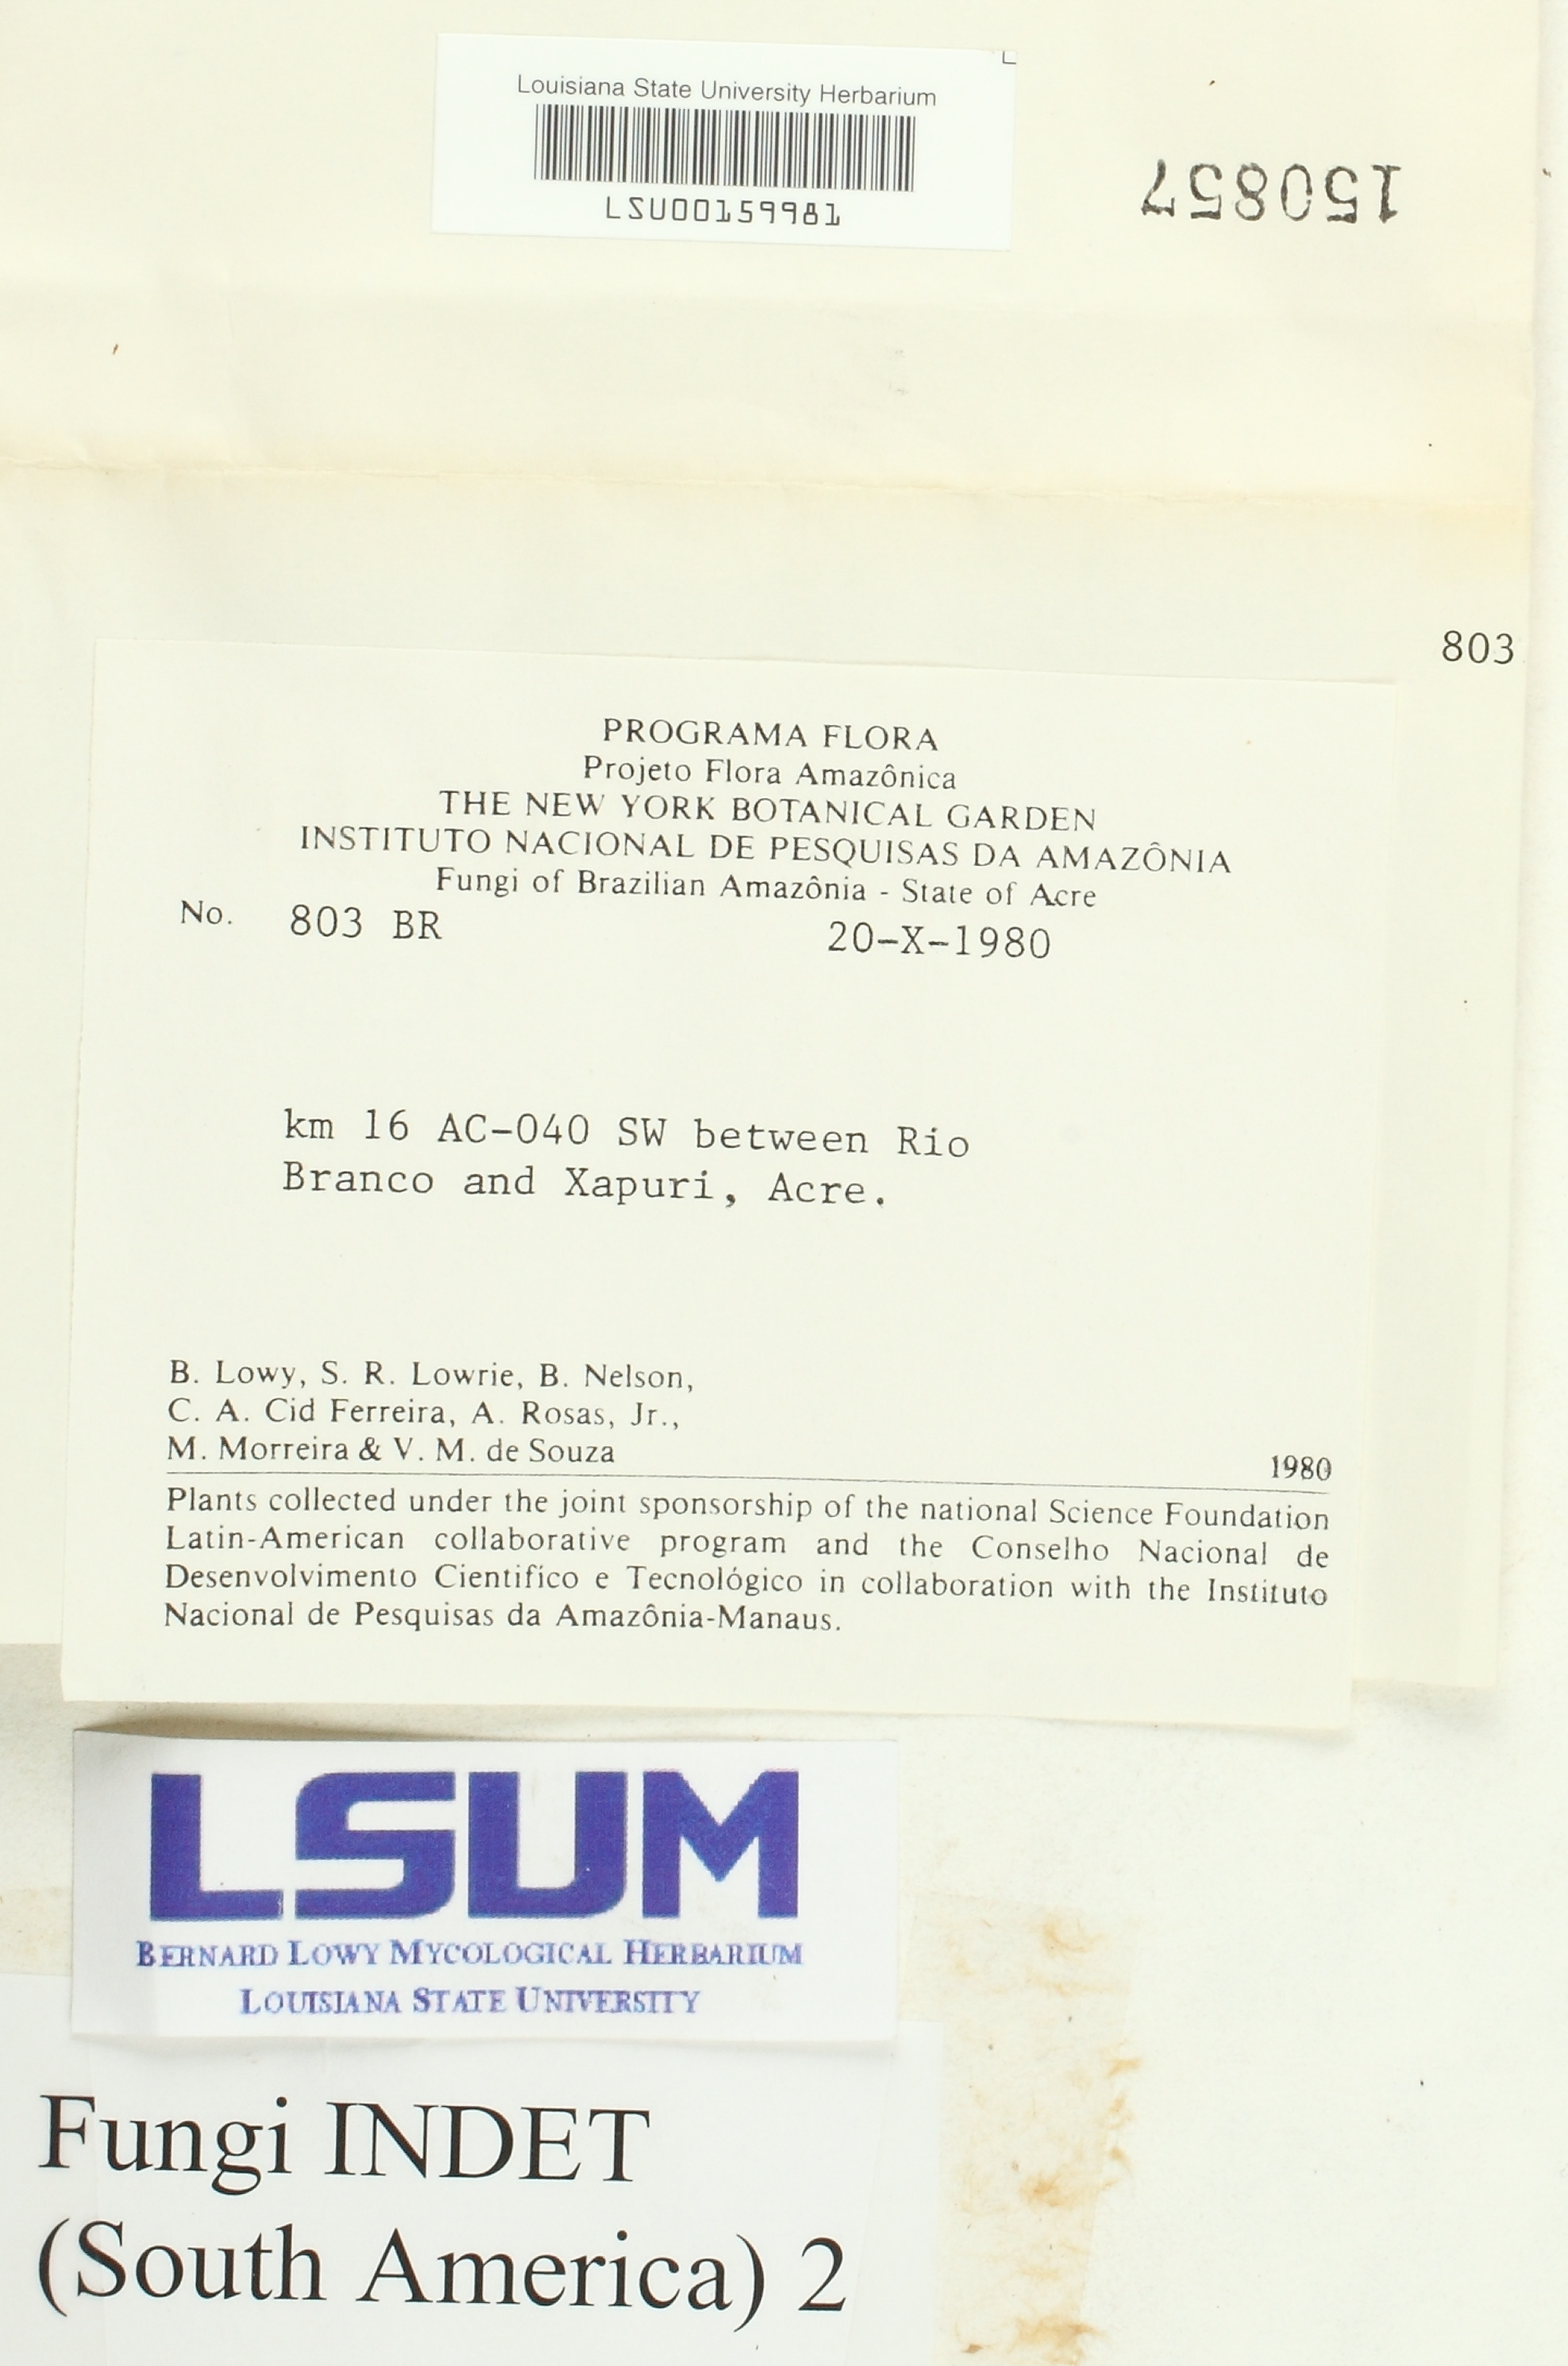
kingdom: Fungi
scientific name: Fungi
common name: Fungi
